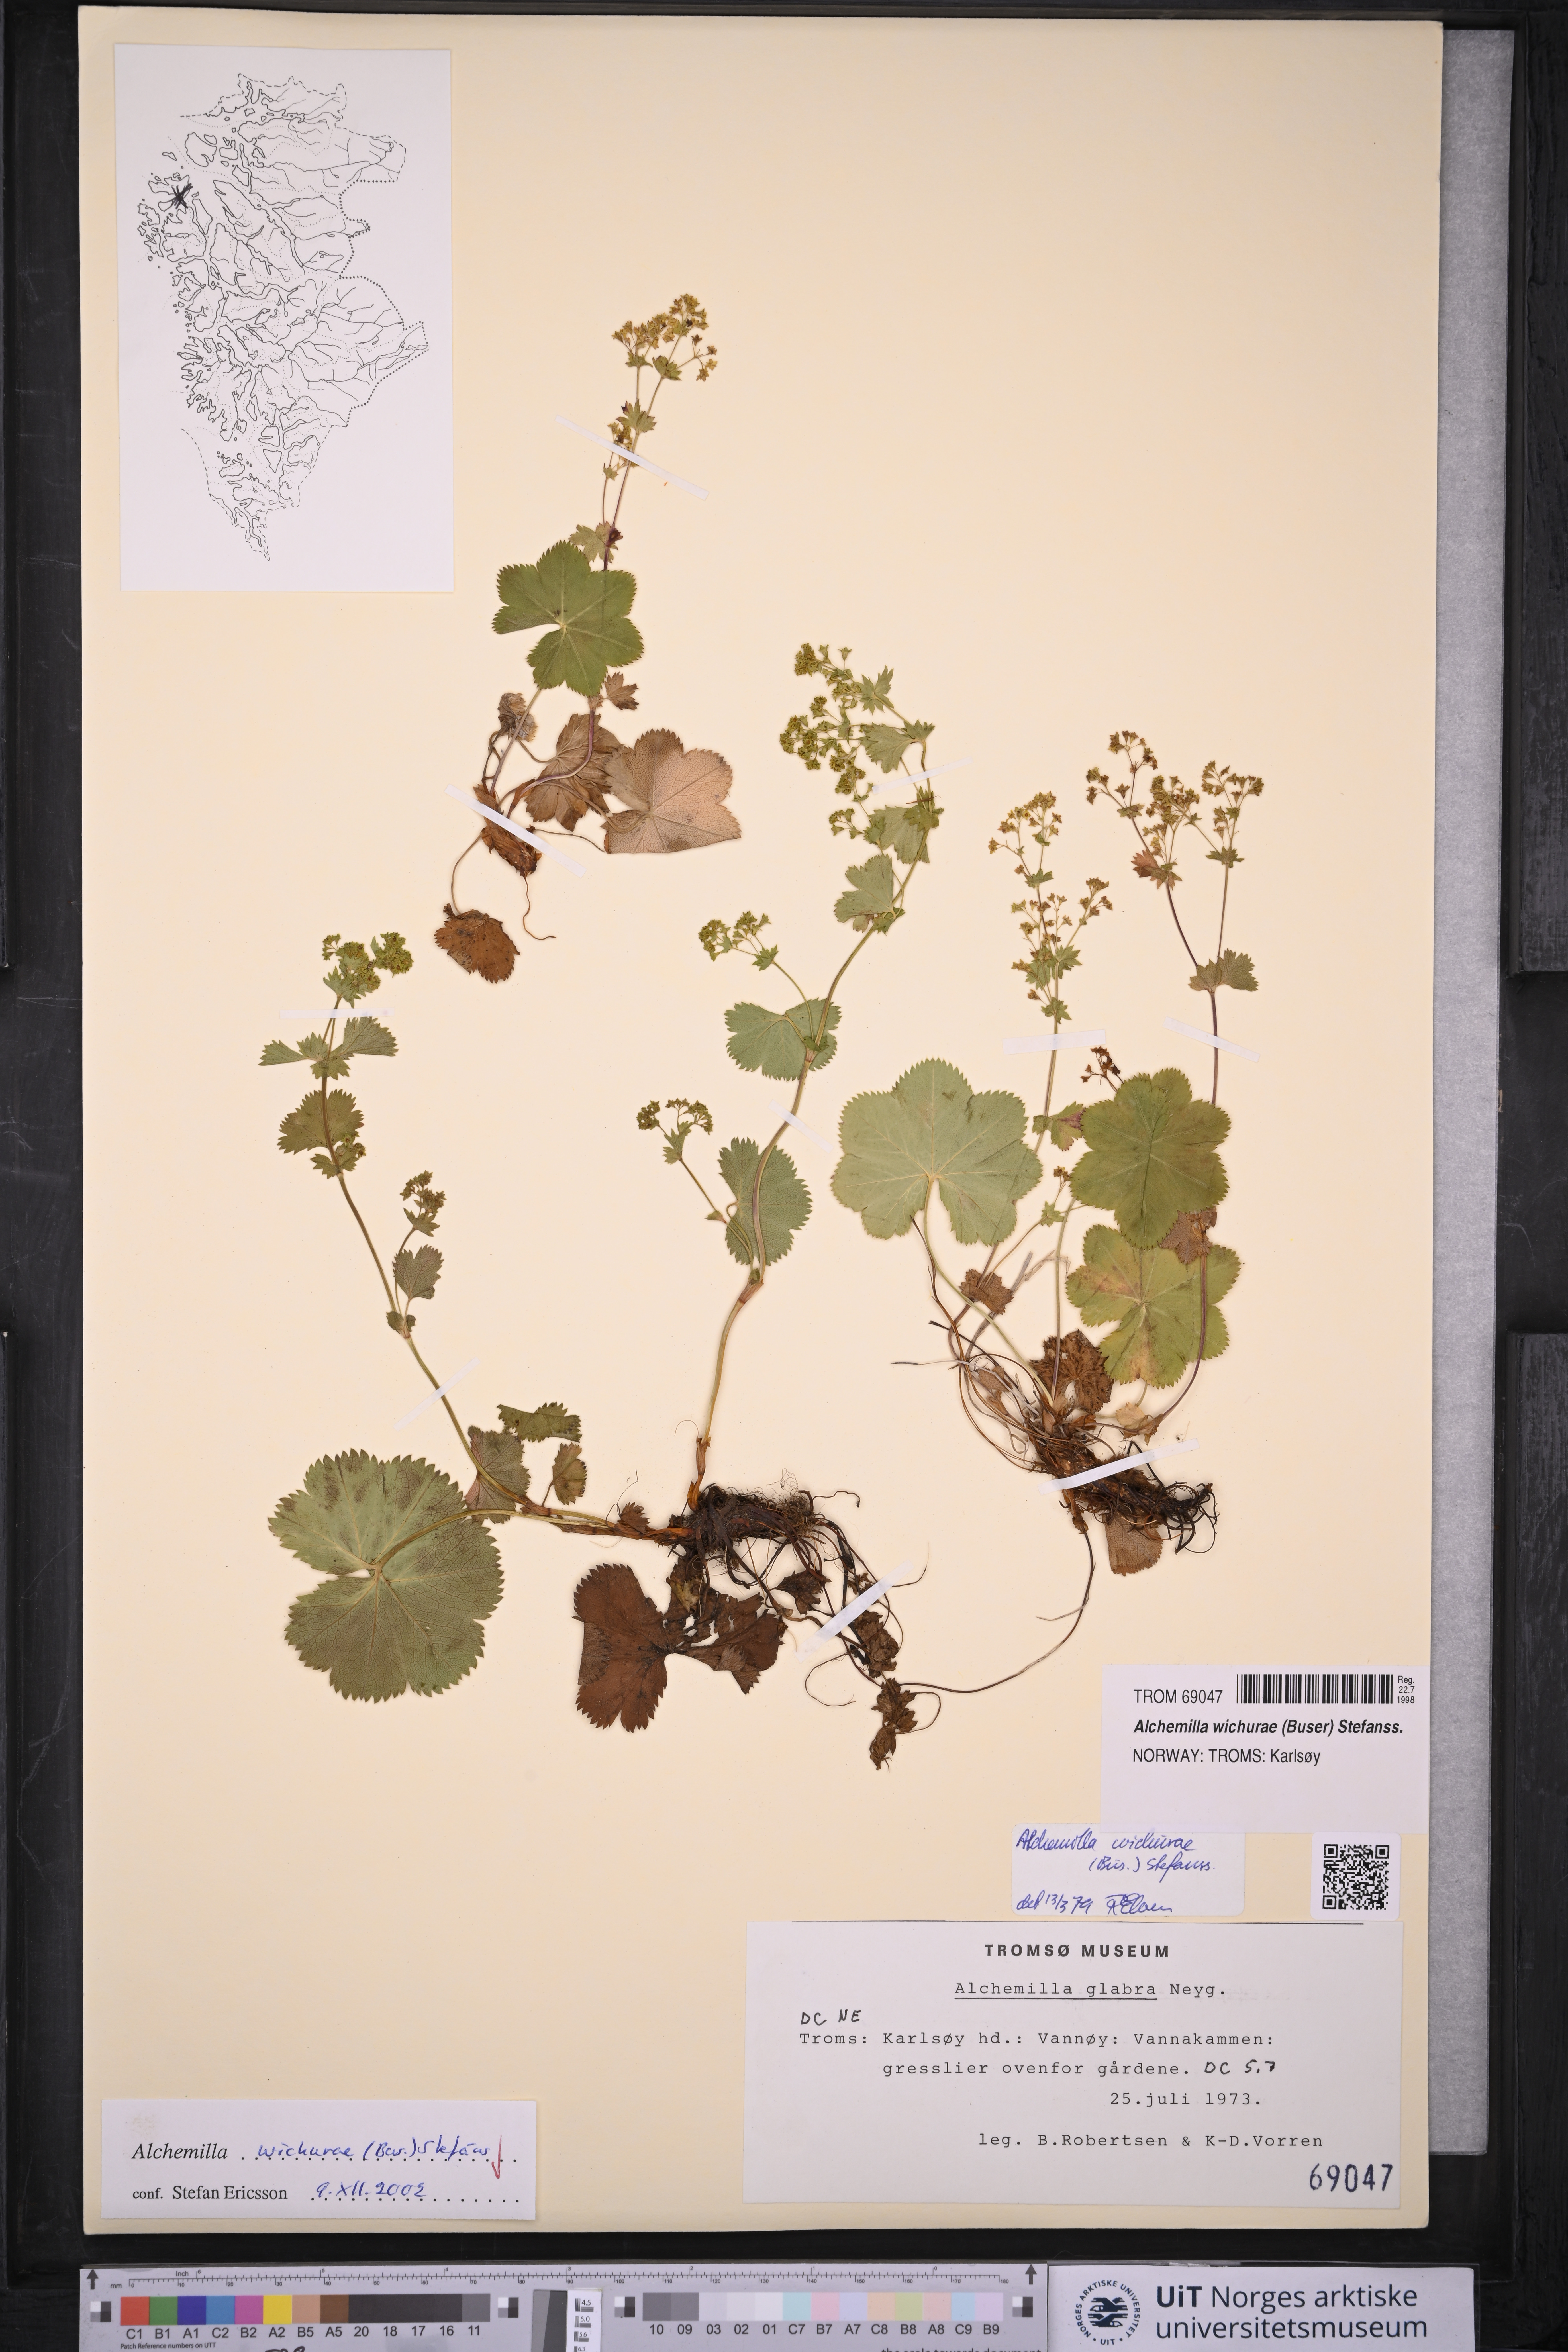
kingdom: Plantae
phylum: Tracheophyta
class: Magnoliopsida
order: Rosales
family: Rosaceae
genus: Alchemilla
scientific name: Alchemilla wichurae
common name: Rock lady's mantle
